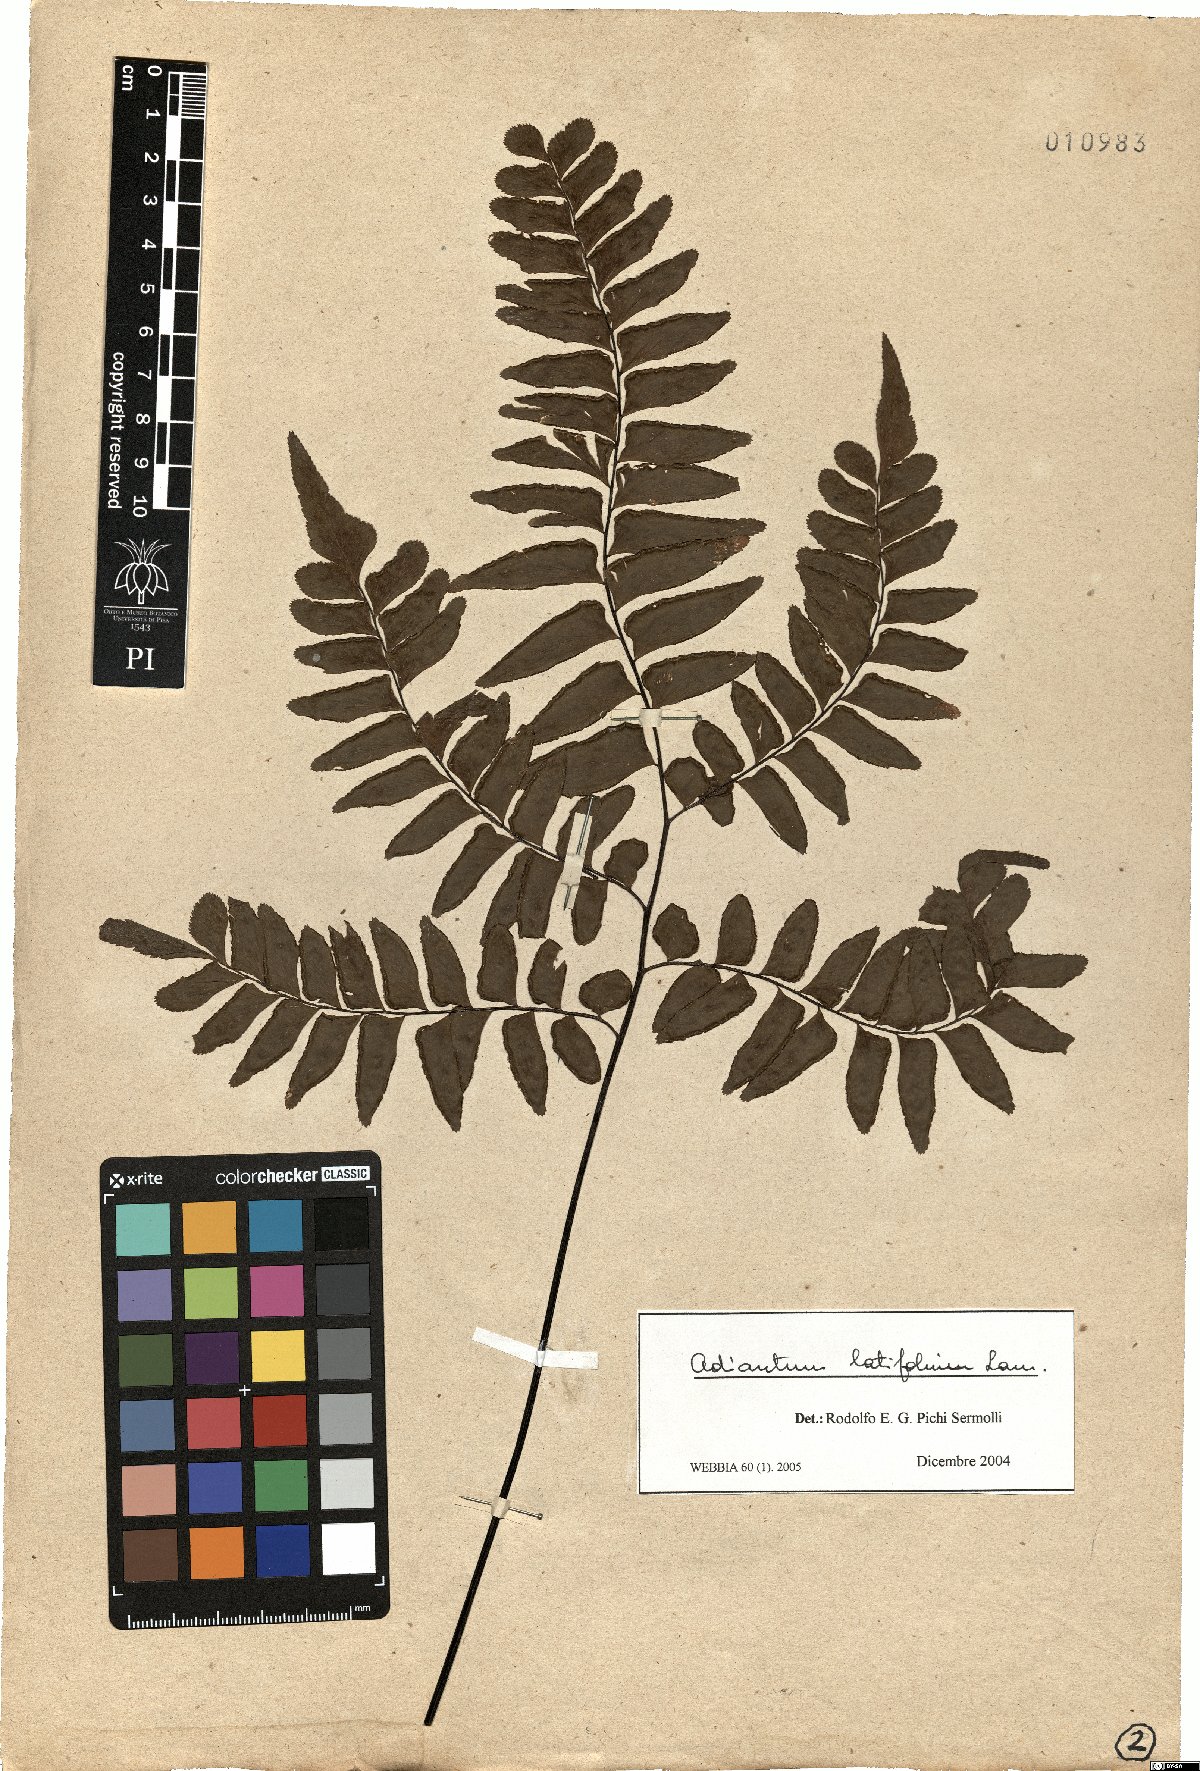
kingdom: Plantae
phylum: Tracheophyta
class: Polypodiopsida
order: Polypodiales
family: Pteridaceae
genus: Adiantum
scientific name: Adiantum latifolium
